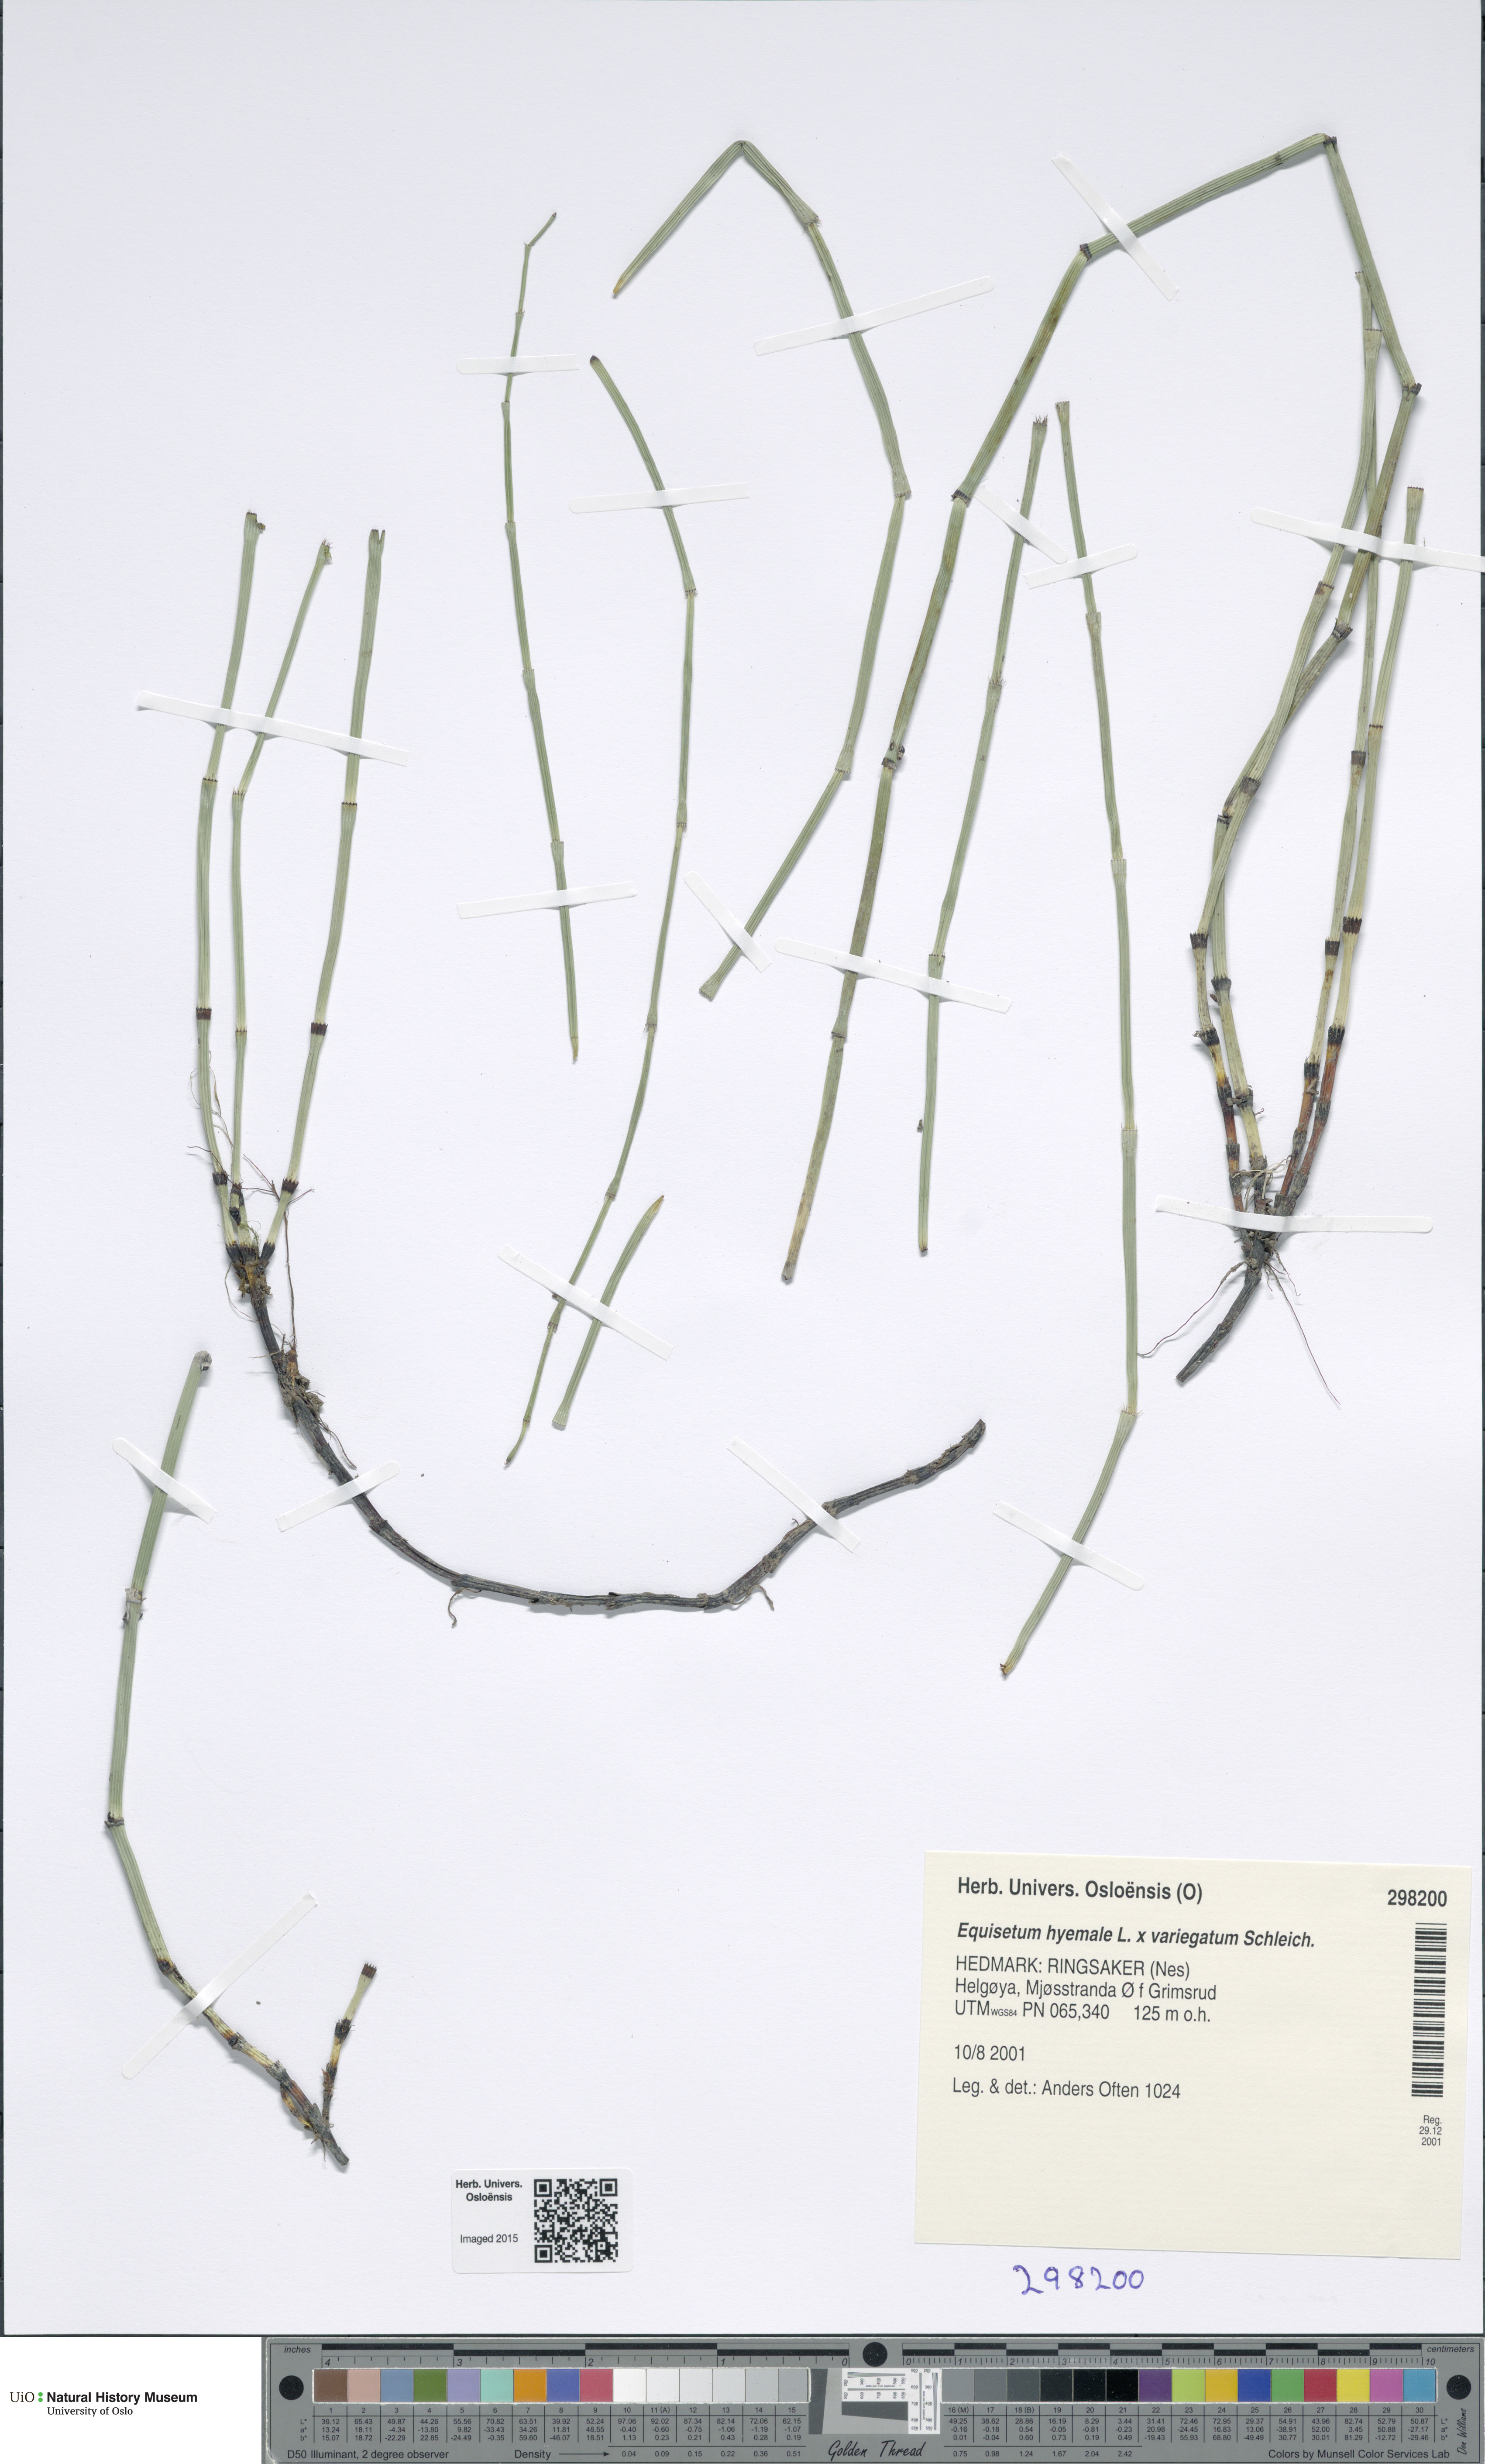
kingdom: Plantae
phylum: Tracheophyta
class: Polypodiopsida
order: Equisetales
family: Equisetaceae
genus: Equisetum
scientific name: Equisetum
